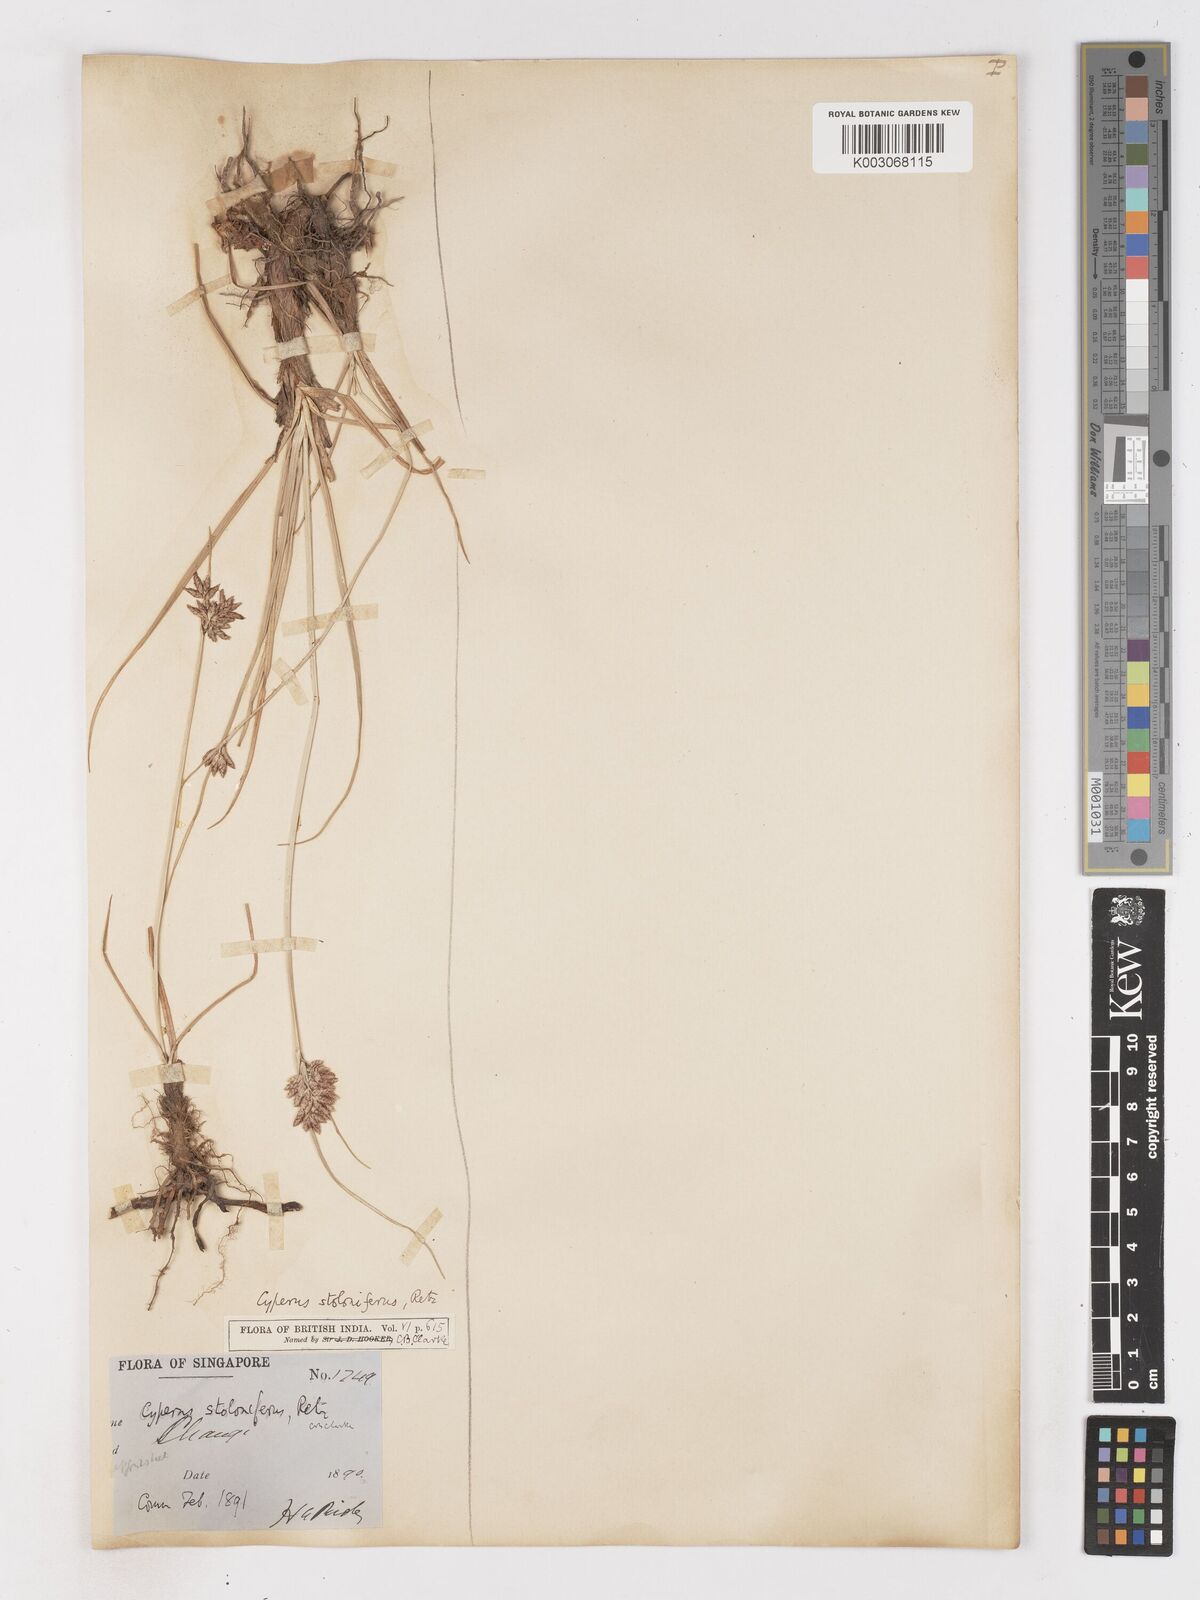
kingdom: Plantae
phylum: Tracheophyta
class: Liliopsida
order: Poales
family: Cyperaceae
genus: Cyperus
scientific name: Cyperus bulbosus
